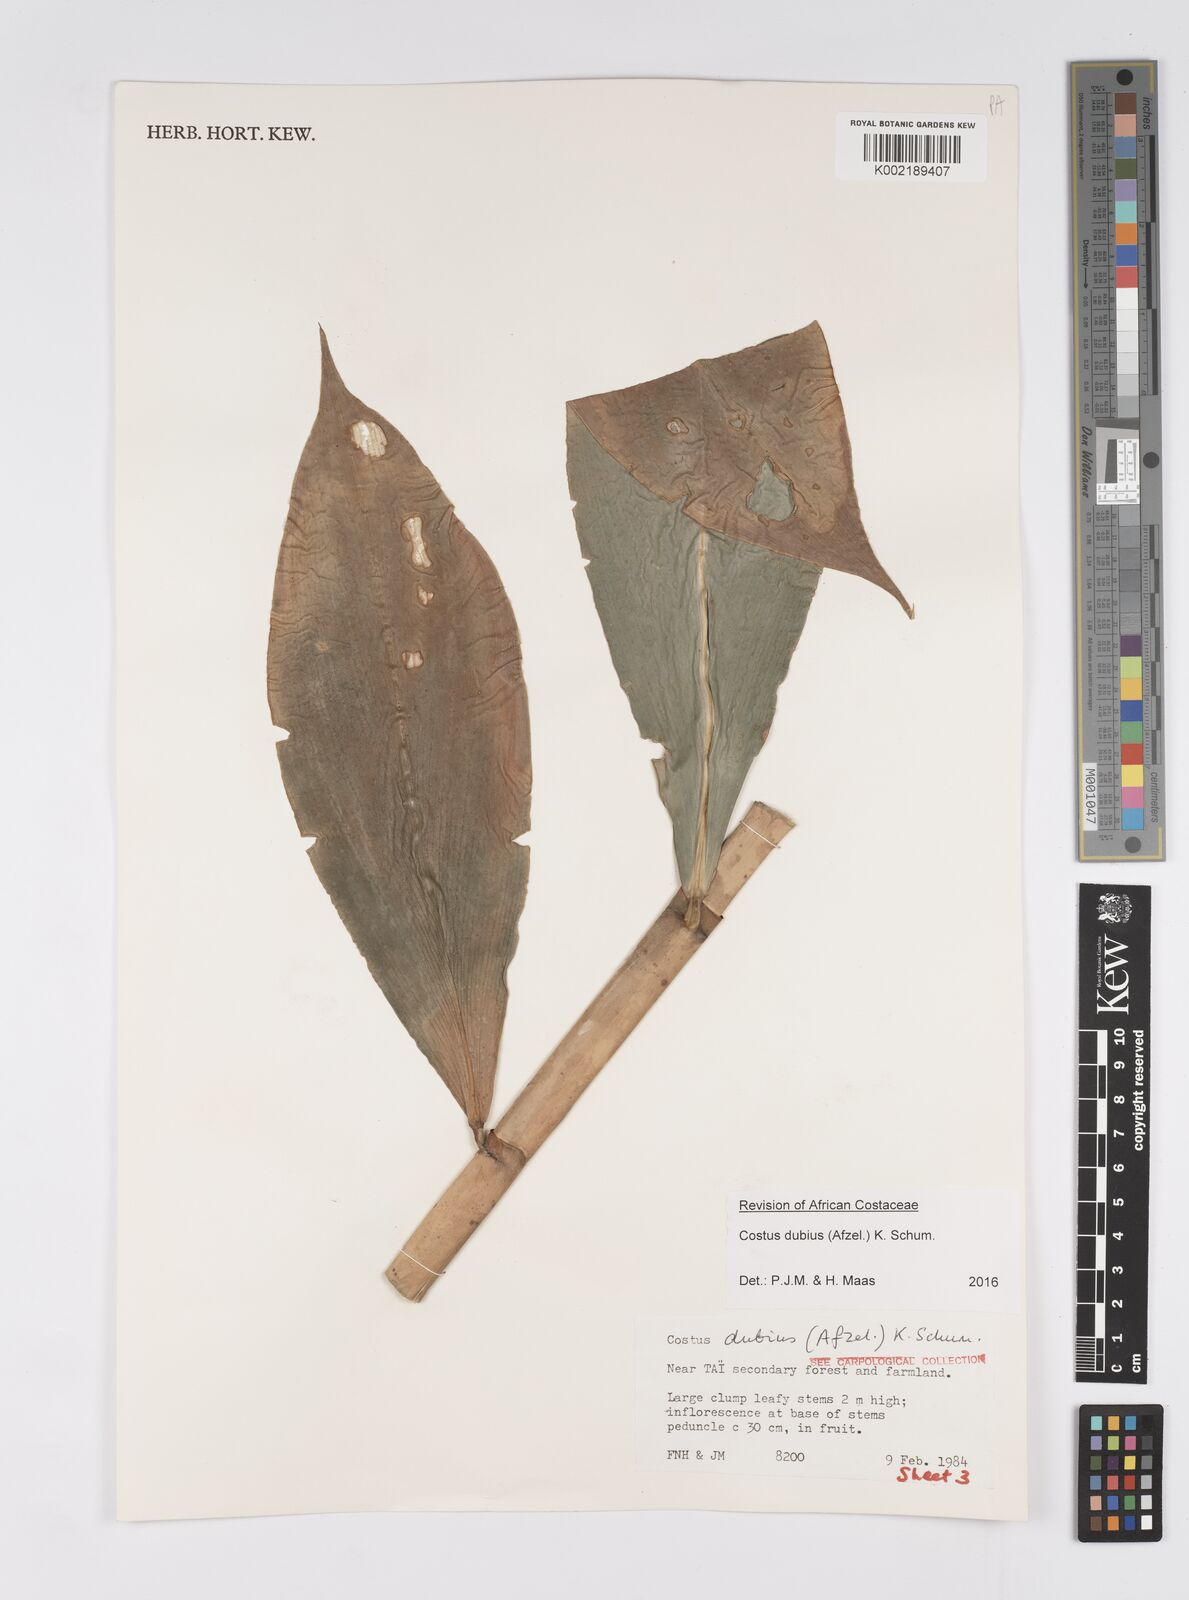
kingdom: Plantae
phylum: Tracheophyta
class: Liliopsida
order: Zingiberales
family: Costaceae
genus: Costus
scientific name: Costus dubius
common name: Costus
